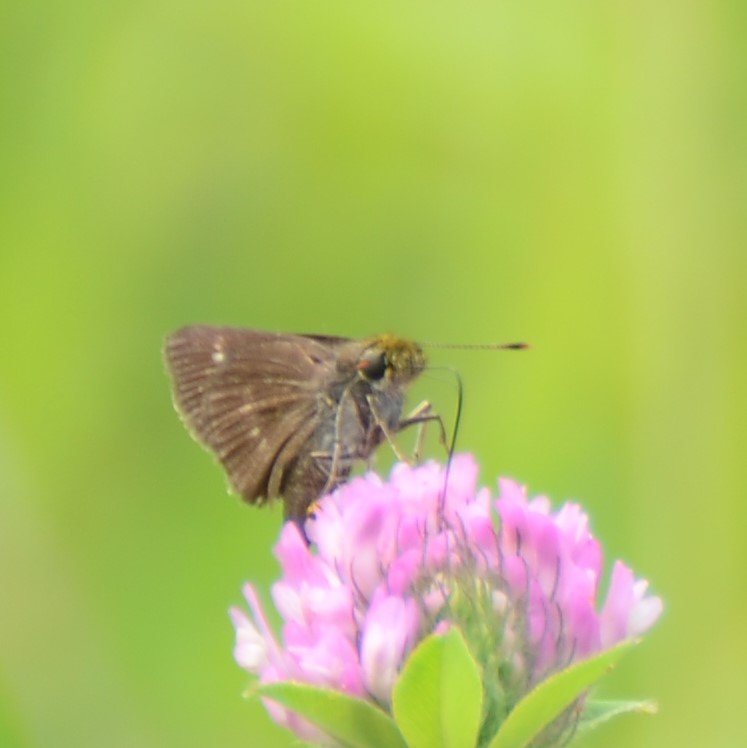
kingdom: Animalia
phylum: Arthropoda
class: Insecta
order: Lepidoptera
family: Hesperiidae
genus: Euphyes
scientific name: Euphyes vestris
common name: Dun Skipper
